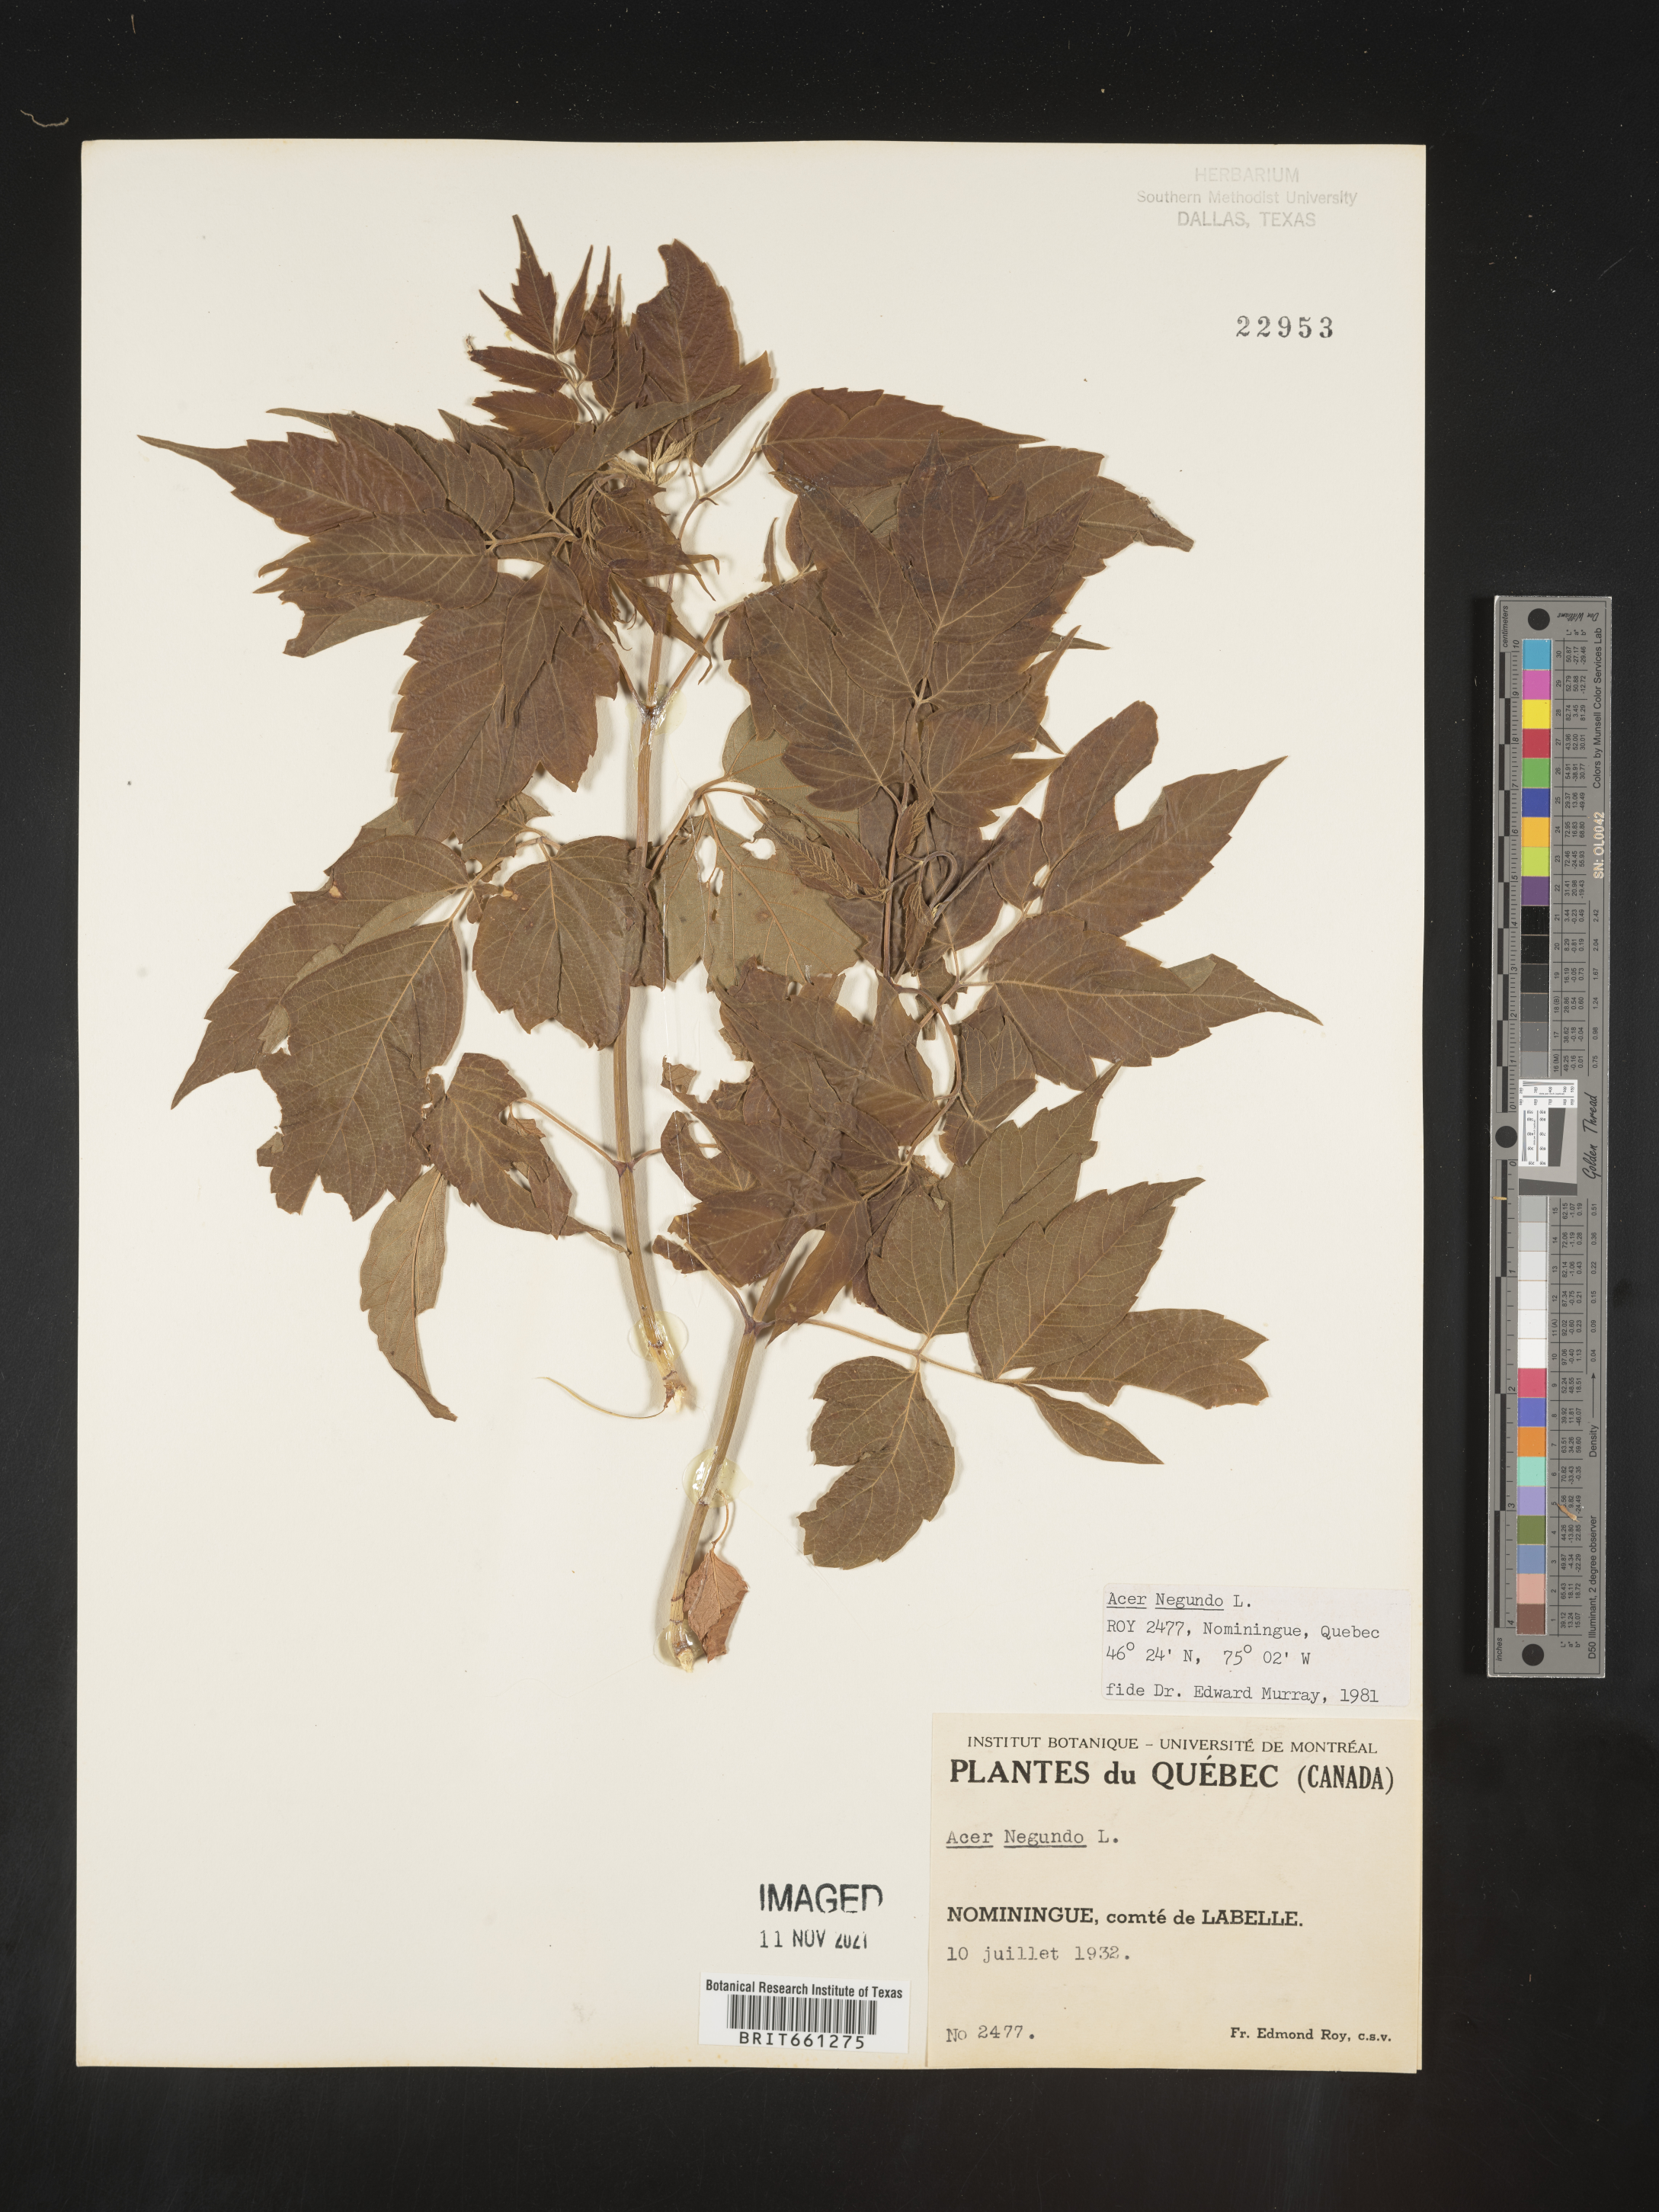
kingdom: Plantae
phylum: Tracheophyta
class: Magnoliopsida
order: Sapindales
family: Sapindaceae
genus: Acer
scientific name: Acer negundo
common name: Ashleaf maple
